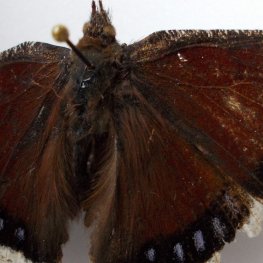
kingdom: Animalia
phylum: Arthropoda
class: Insecta
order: Lepidoptera
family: Nymphalidae
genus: Nymphalis
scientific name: Nymphalis antiopa
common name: Mourning Cloak
